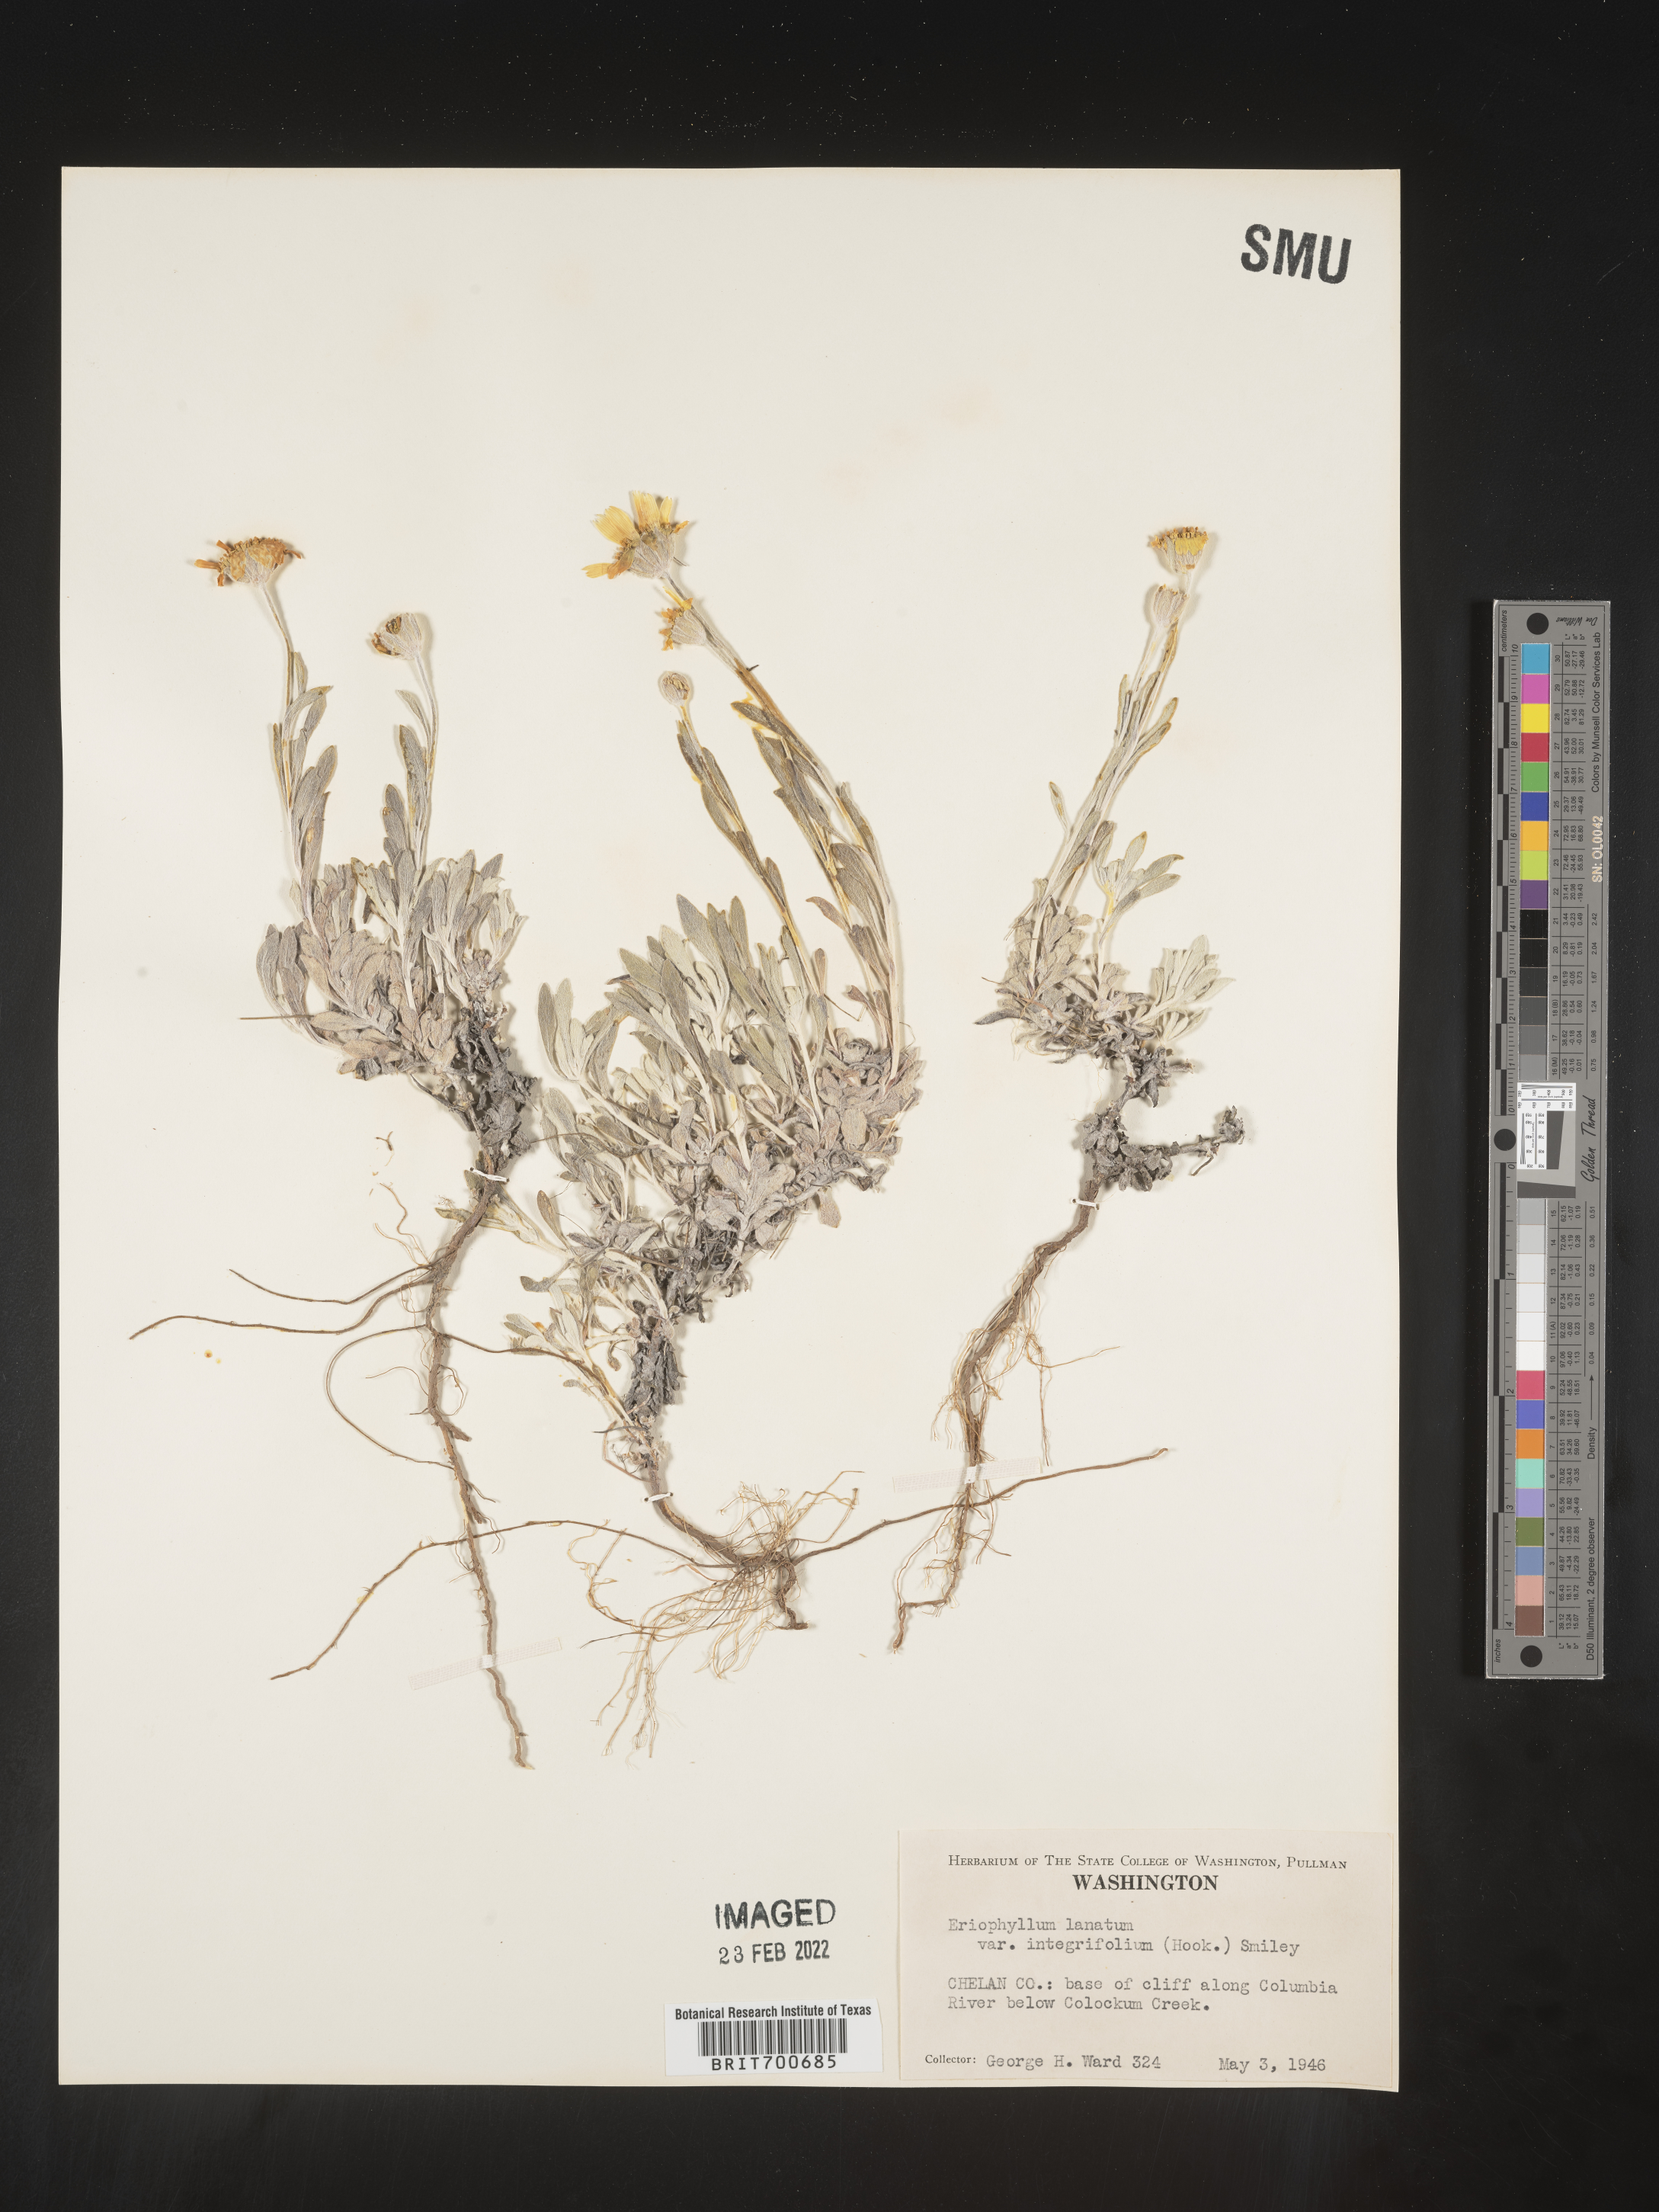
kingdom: Plantae
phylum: Tracheophyta
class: Magnoliopsida
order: Asterales
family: Asteraceae
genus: Eriophyllum
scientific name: Eriophyllum lanatum
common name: Common woolly-sunflower
